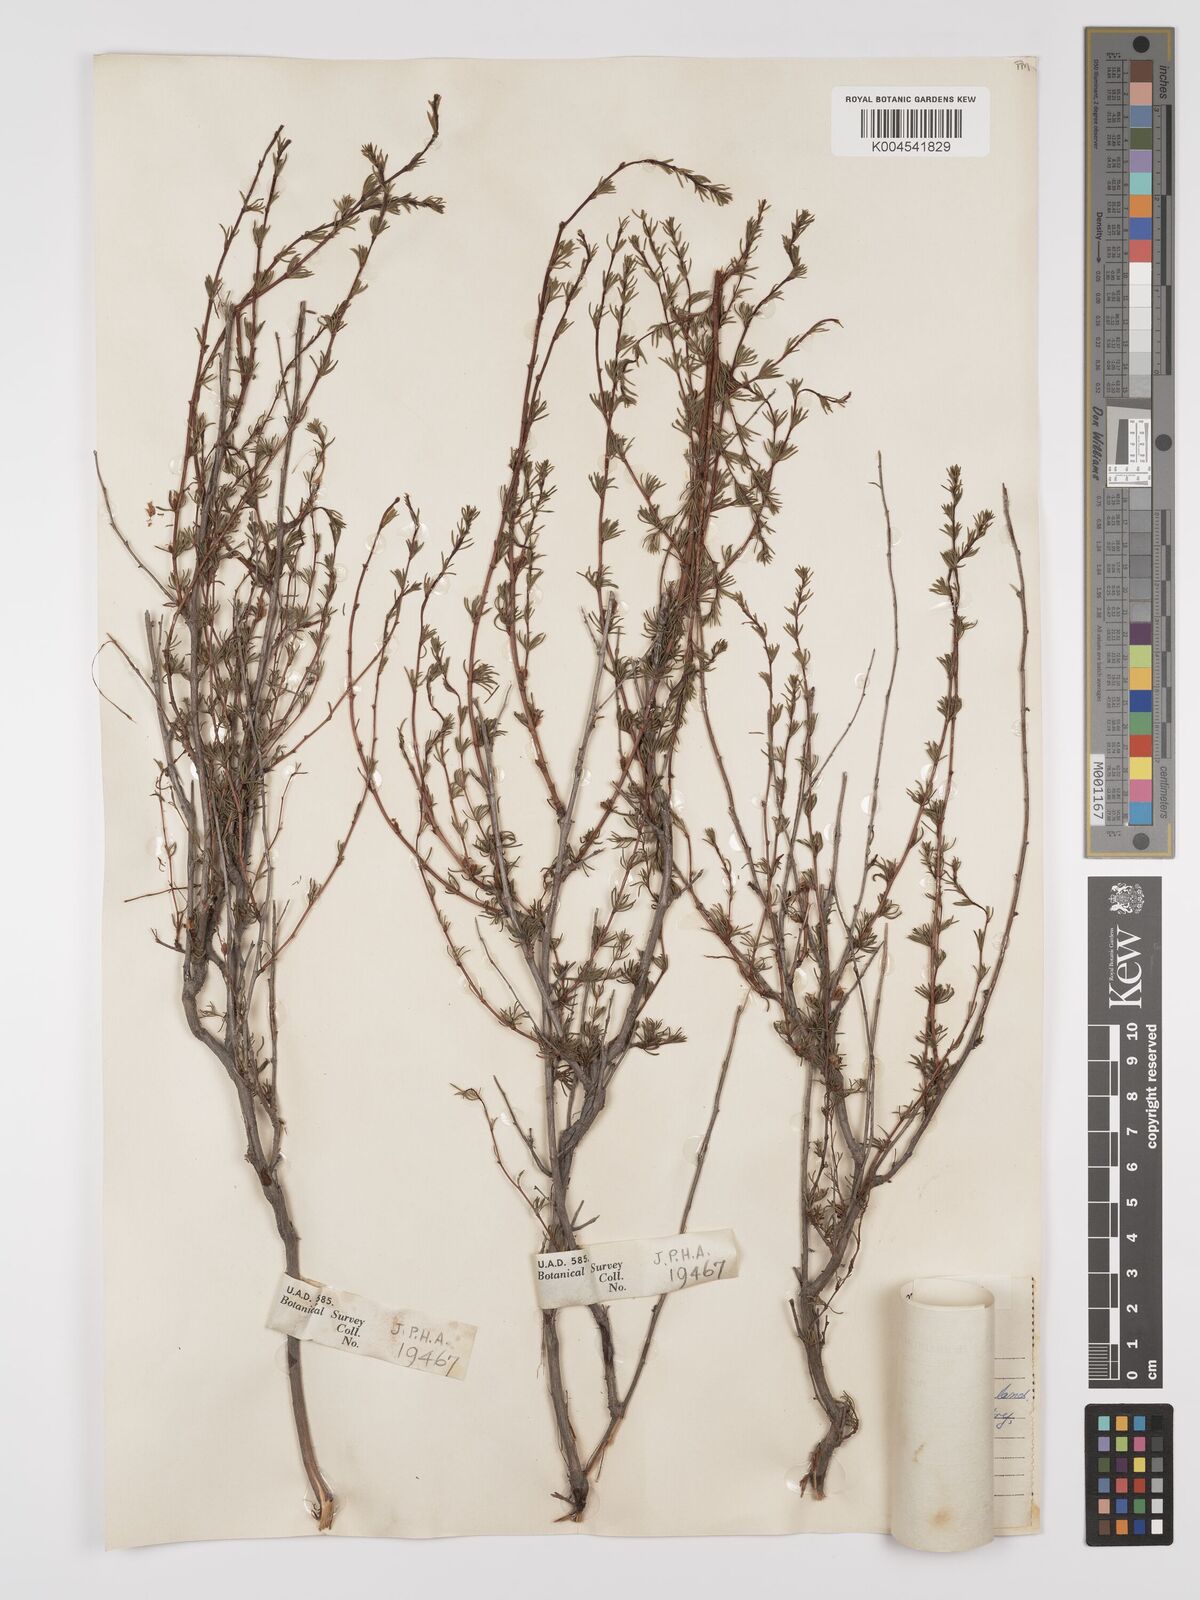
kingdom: Plantae
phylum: Tracheophyta
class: Magnoliopsida
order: Rosales
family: Rosaceae
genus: Cliffortia
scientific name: Cliffortia teretifolia
